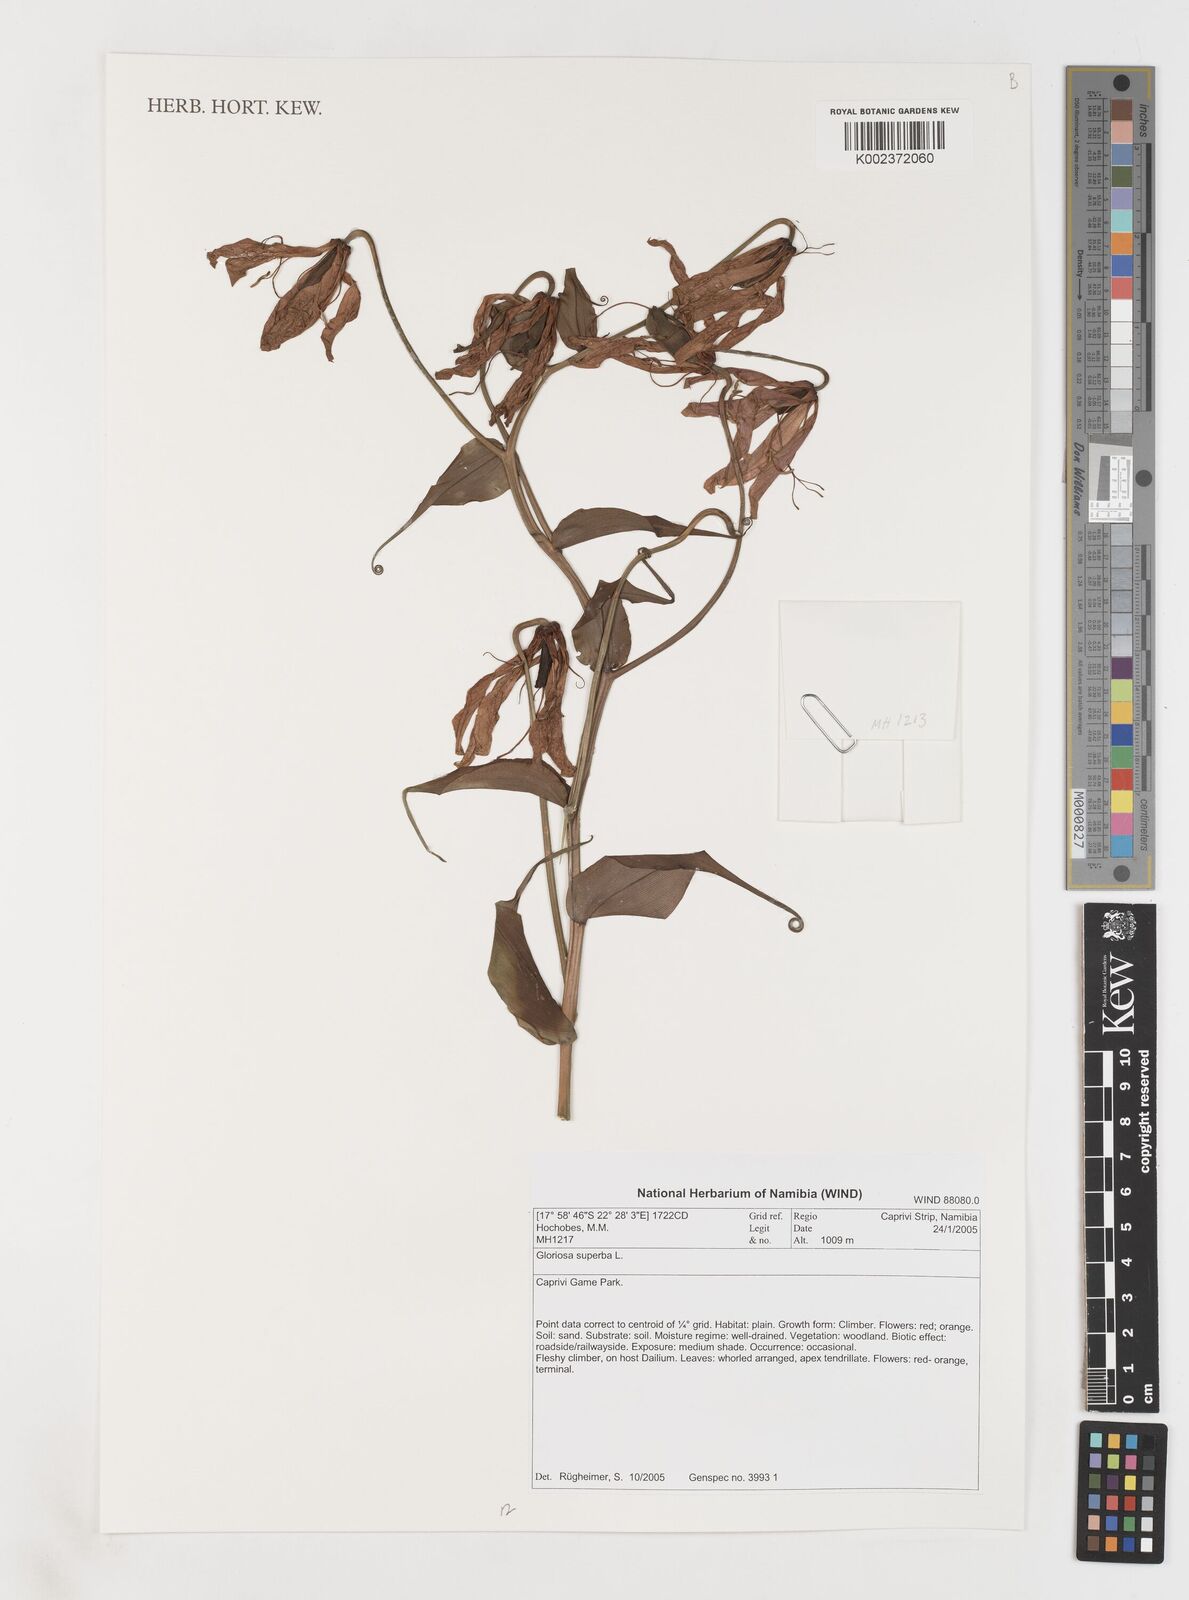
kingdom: Plantae
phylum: Tracheophyta
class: Liliopsida
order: Liliales
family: Colchicaceae
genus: Gloriosa
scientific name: Gloriosa simplex
